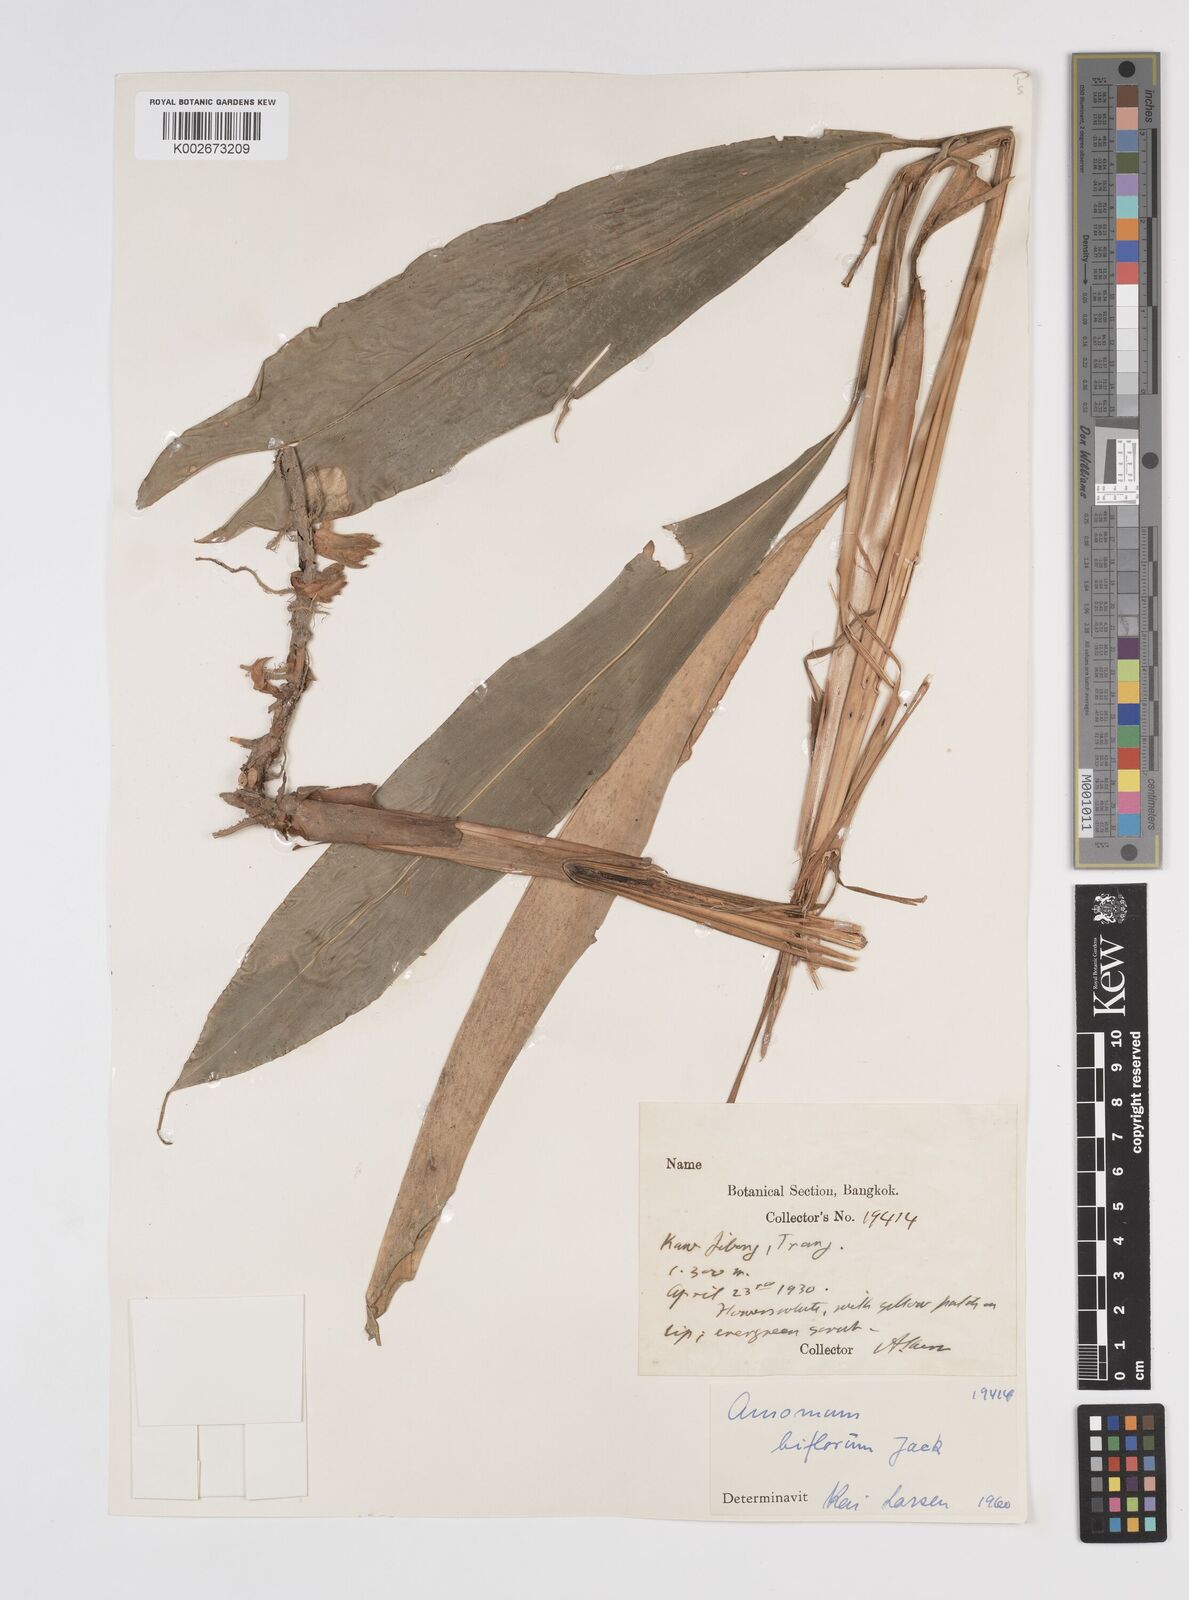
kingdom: Plantae
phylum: Tracheophyta
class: Liliopsida
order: Zingiberales
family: Zingiberaceae
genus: Wurfbainia
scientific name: Wurfbainia biflora
